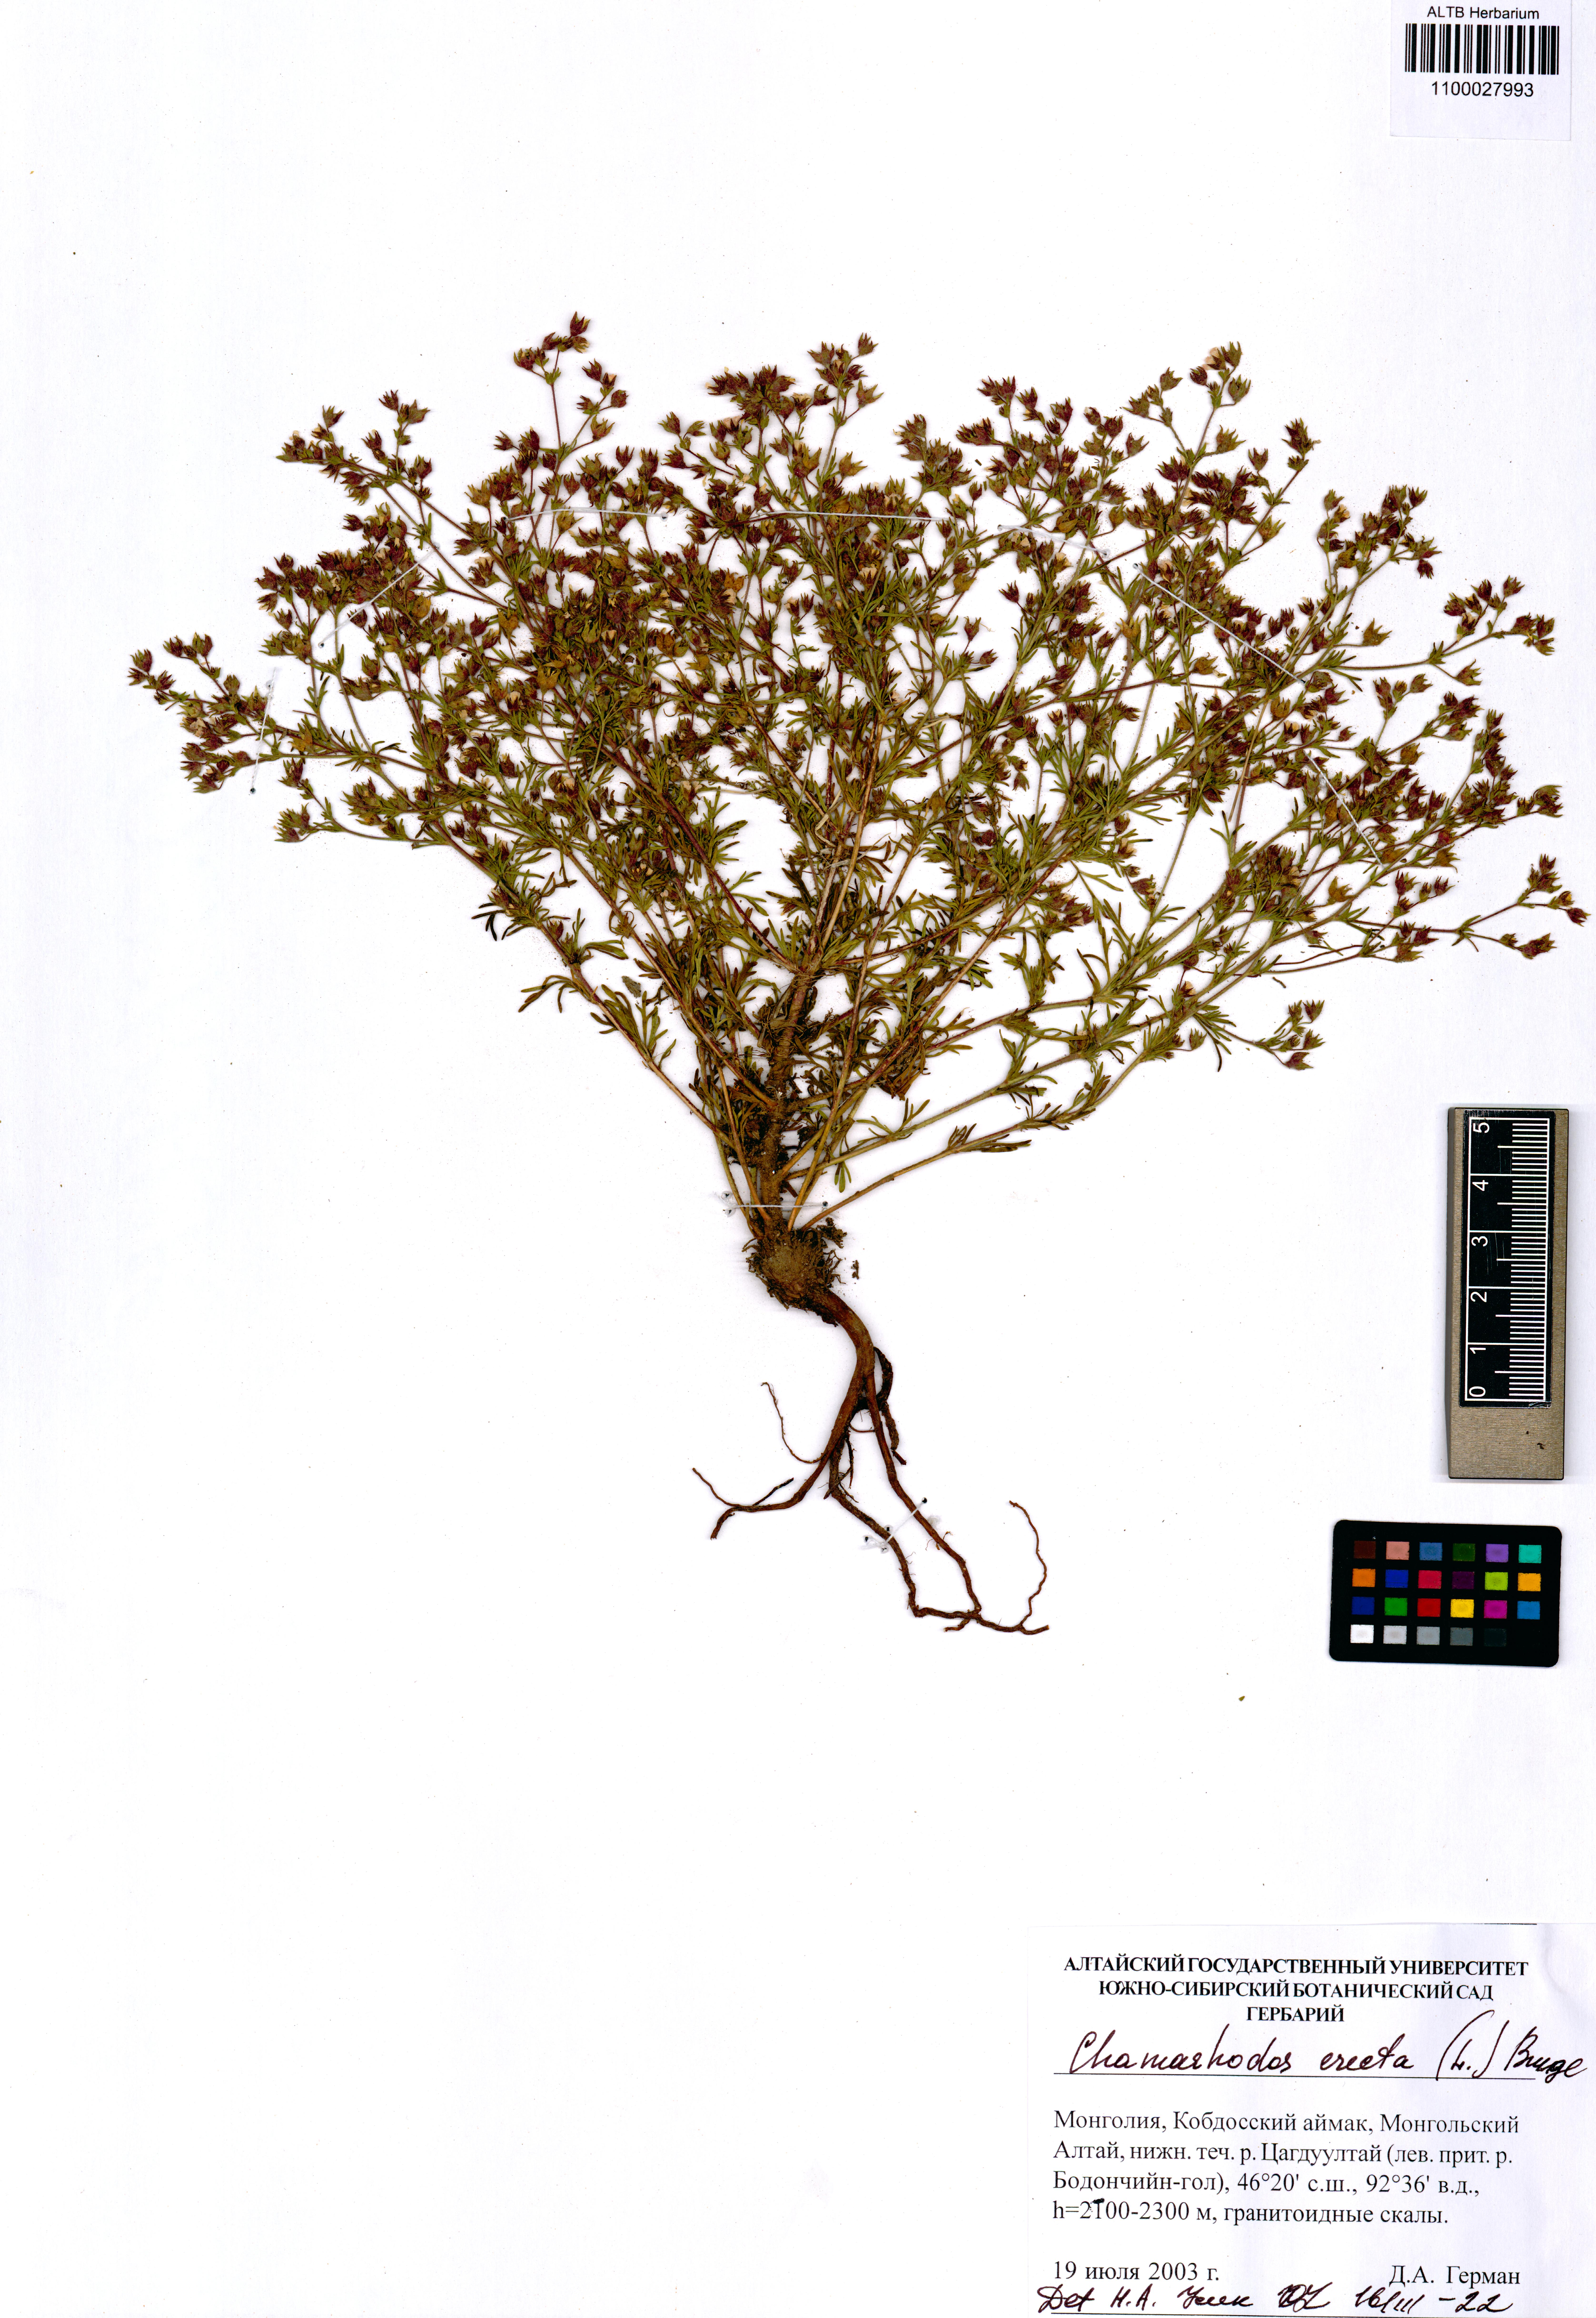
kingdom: Plantae
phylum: Tracheophyta
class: Magnoliopsida
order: Rosales
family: Rosaceae
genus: Chamaerhodos
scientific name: Chamaerhodos erecta
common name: American chamaerhodos
